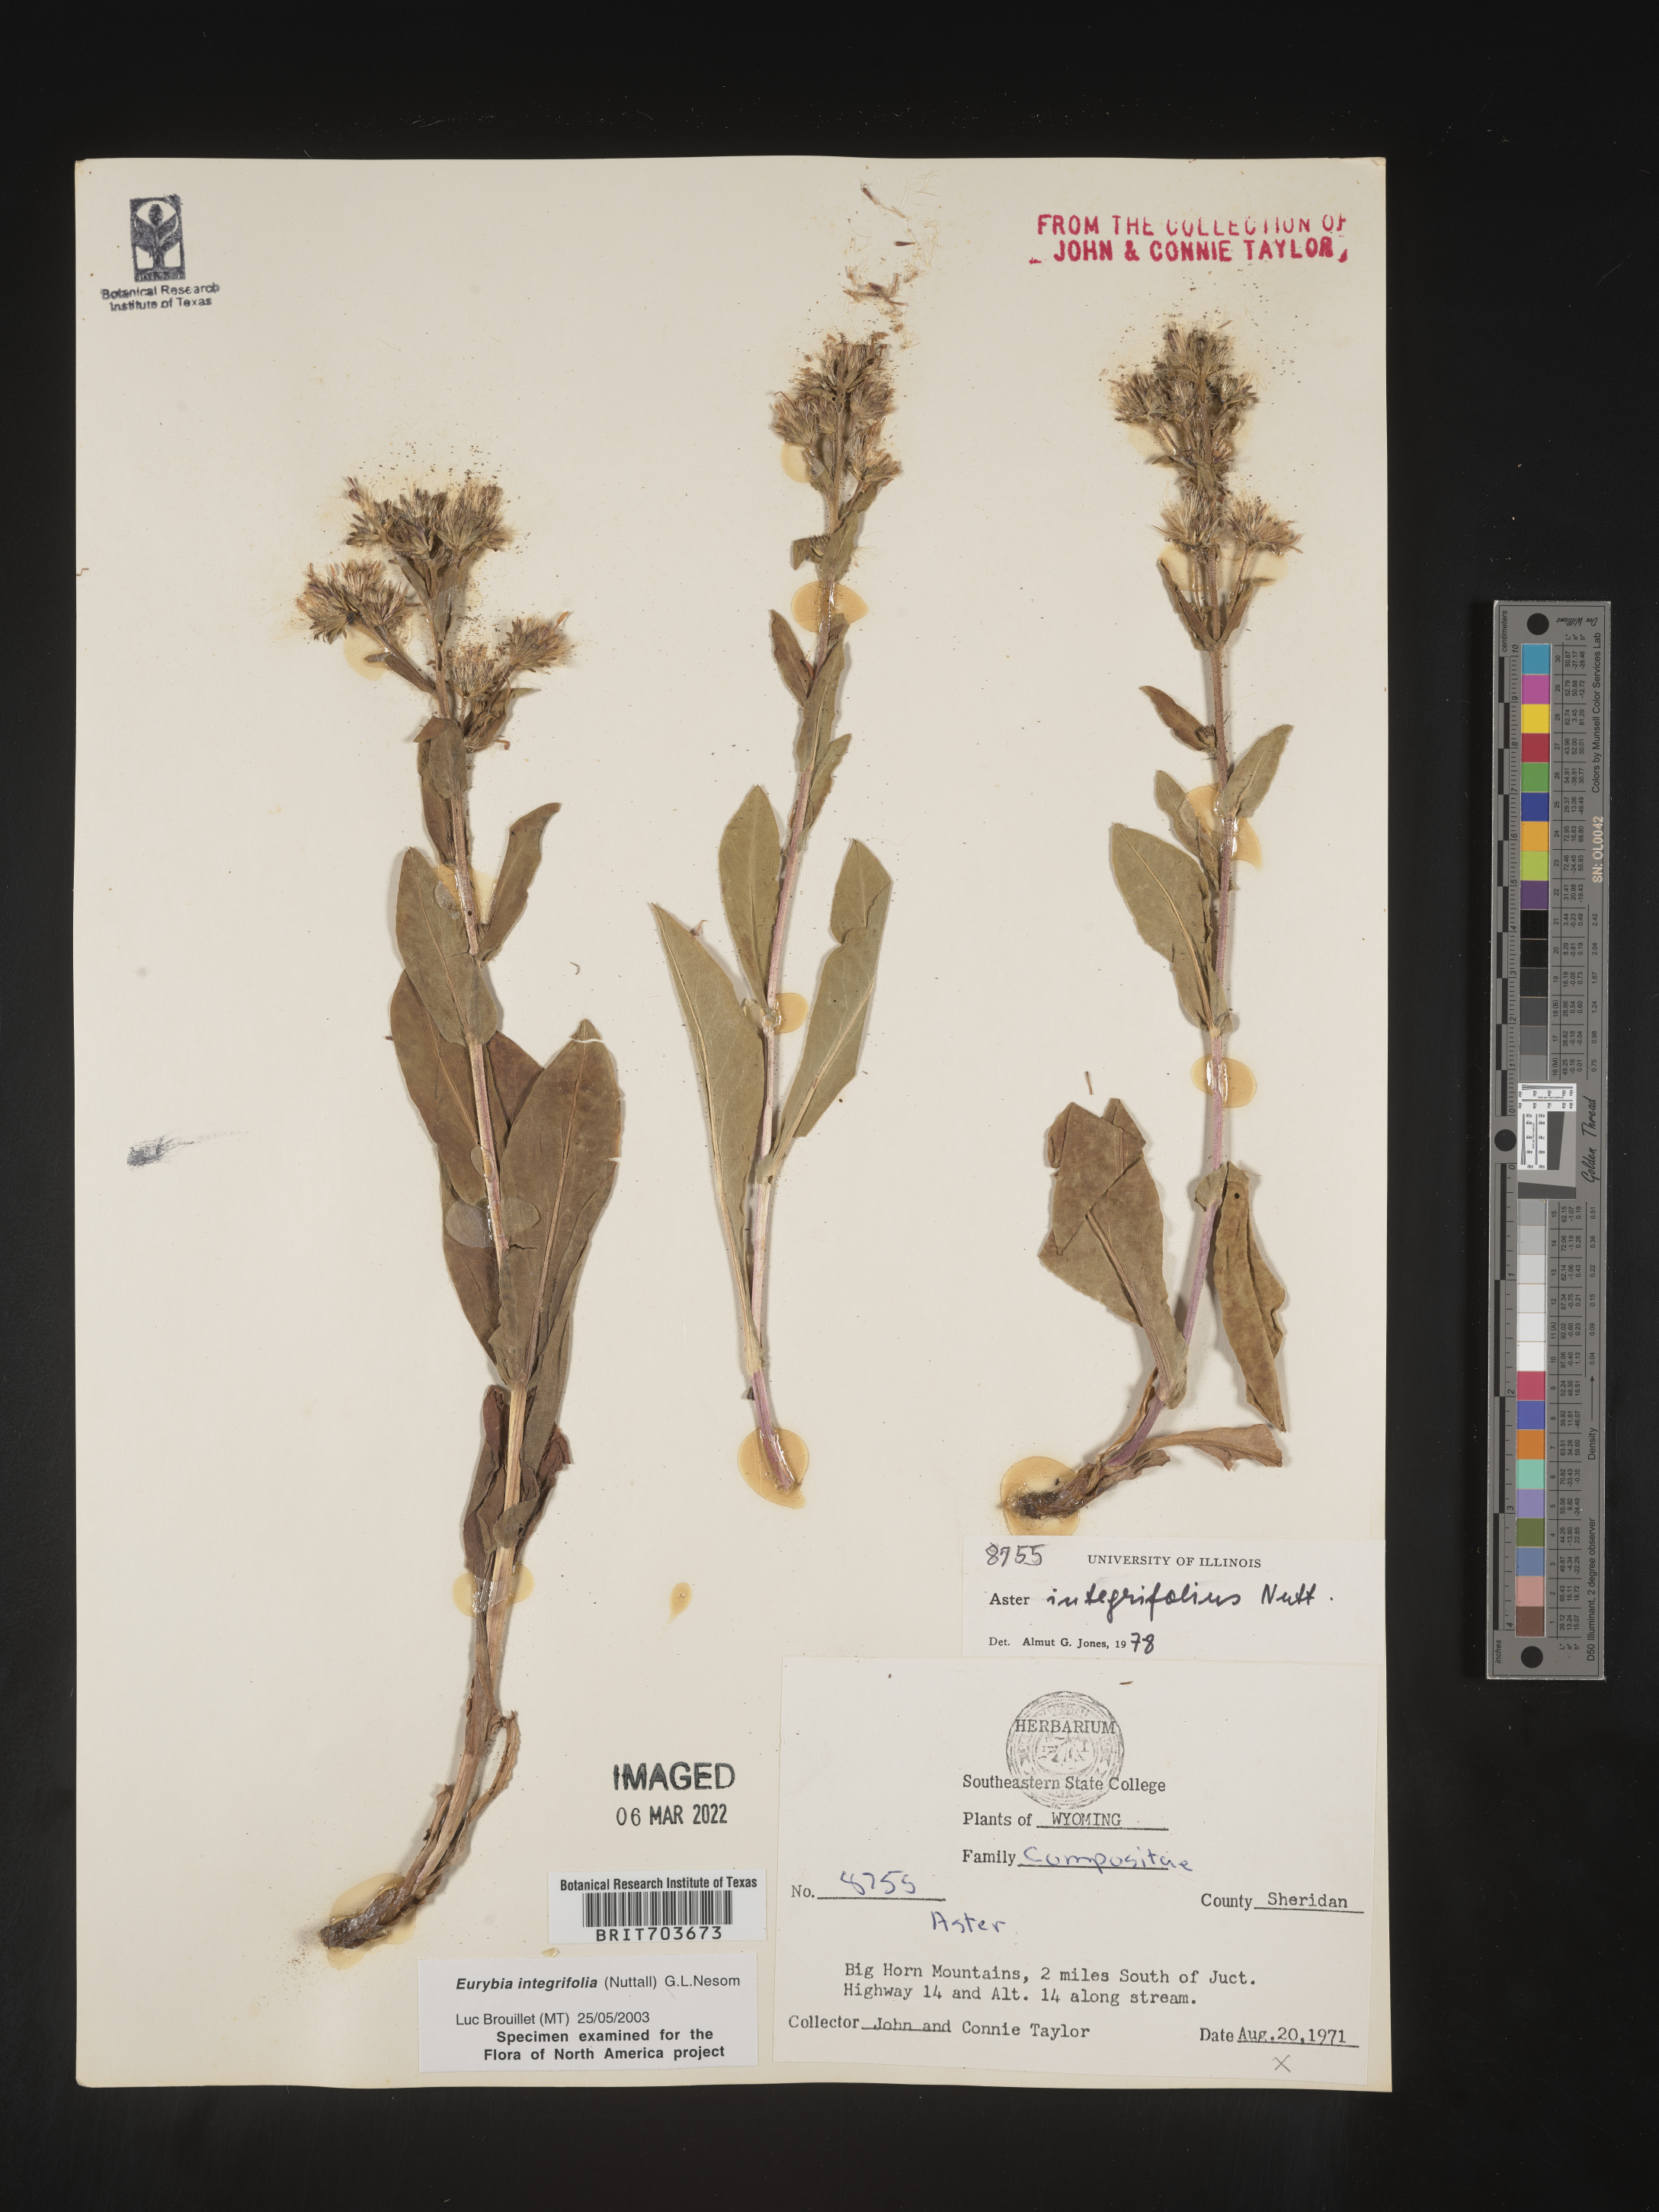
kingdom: Plantae
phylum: Tracheophyta
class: Magnoliopsida
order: Asterales
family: Asteraceae
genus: Eurybia
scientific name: Eurybia integrifolia
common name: Thick-stem aster
